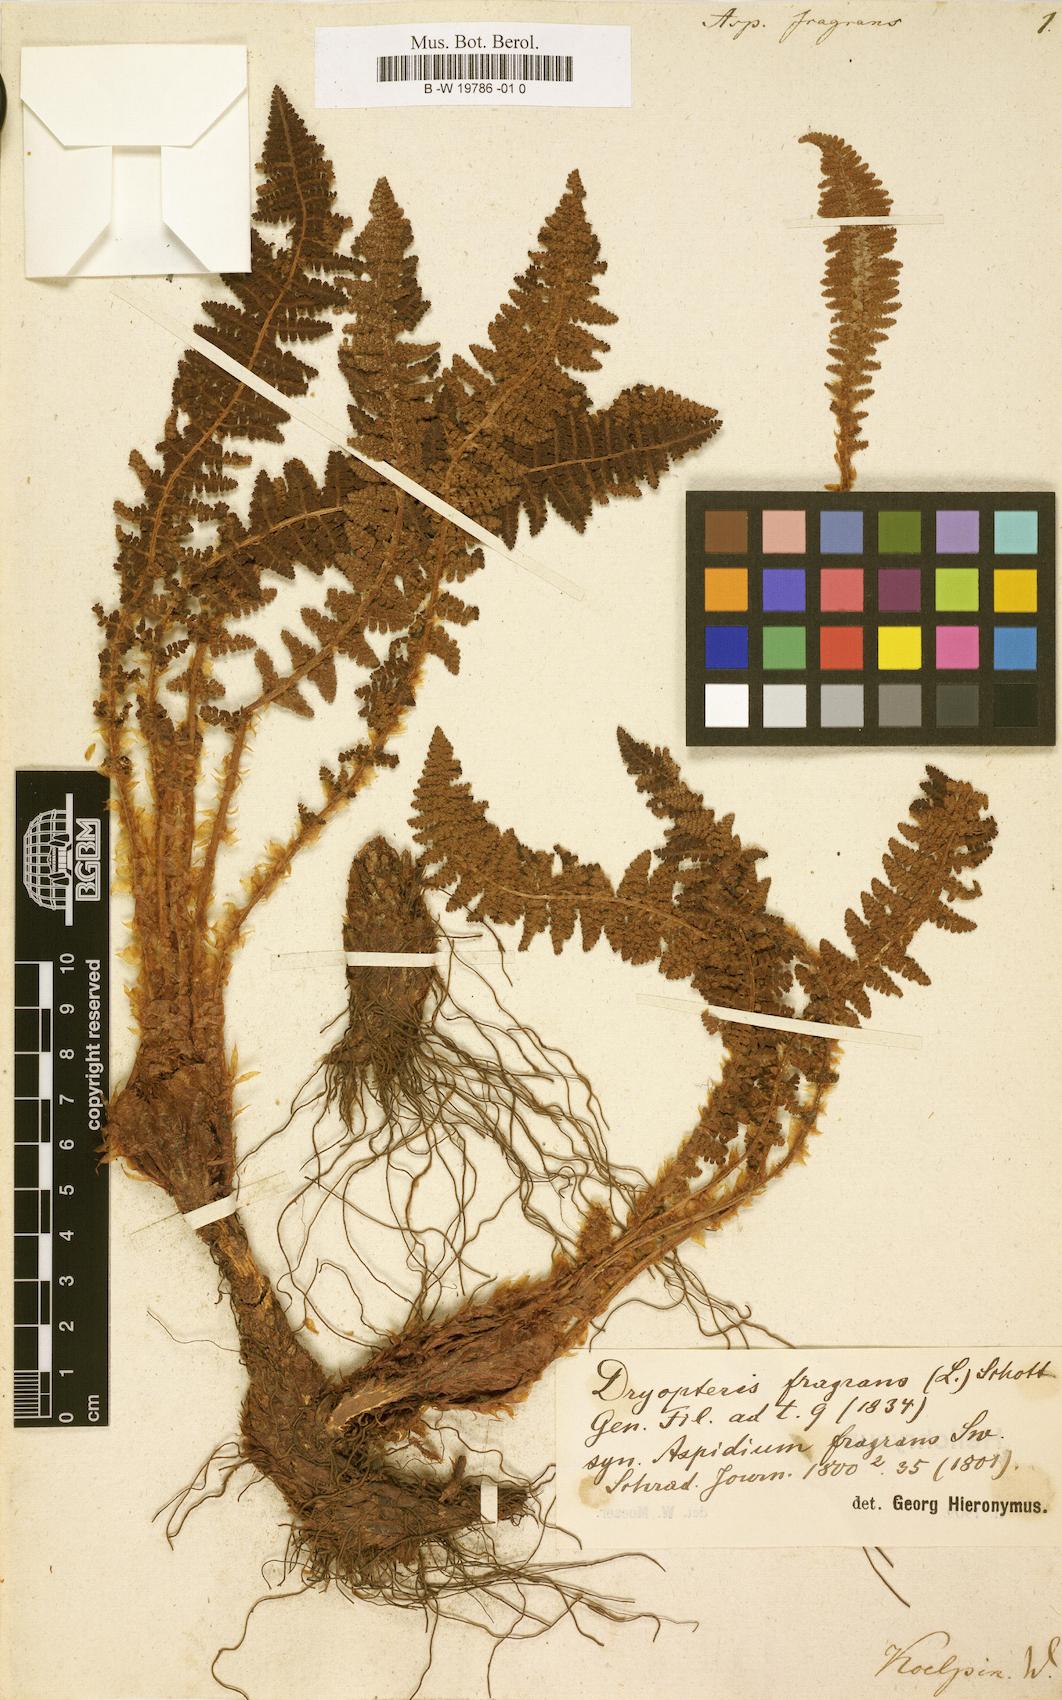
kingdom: Plantae
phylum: Tracheophyta
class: Polypodiopsida
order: Polypodiales
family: Dryopteridaceae
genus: Dryopteris
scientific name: Dryopteris
